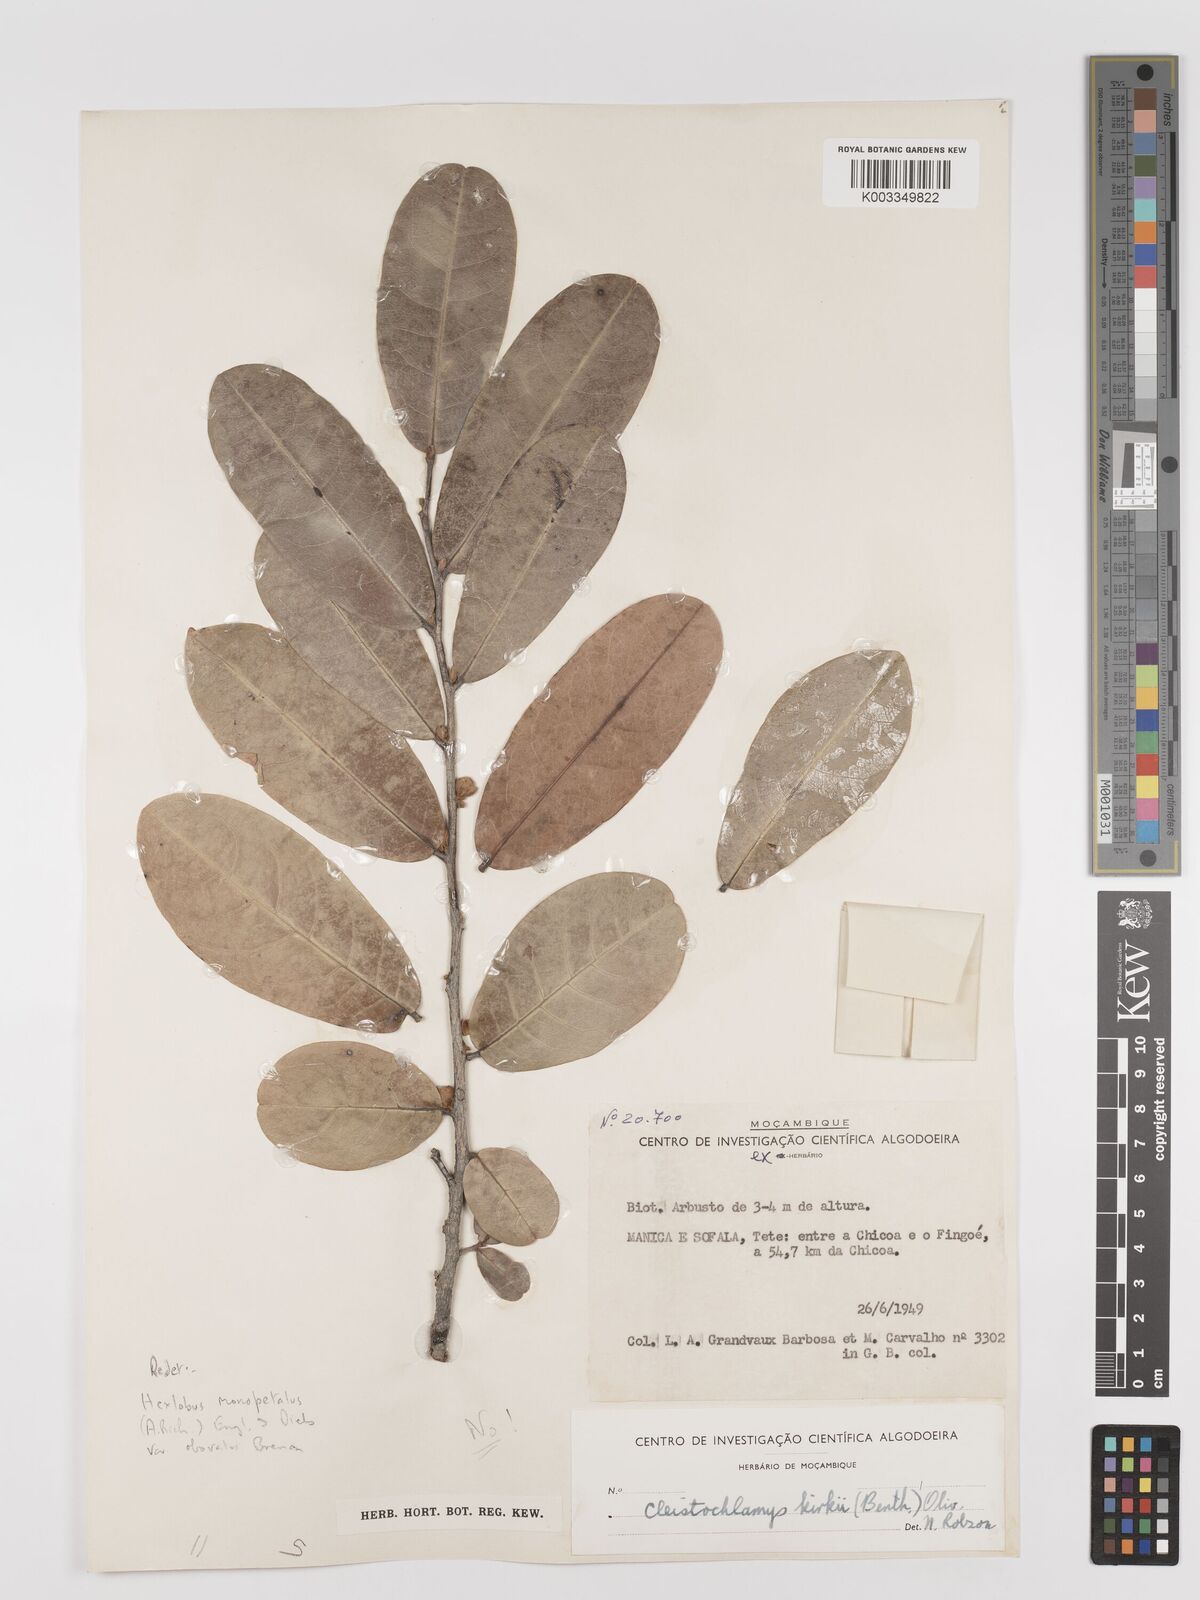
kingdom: Plantae
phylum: Tracheophyta
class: Magnoliopsida
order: Magnoliales
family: Annonaceae
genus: Hexalobus
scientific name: Hexalobus monopetalus
